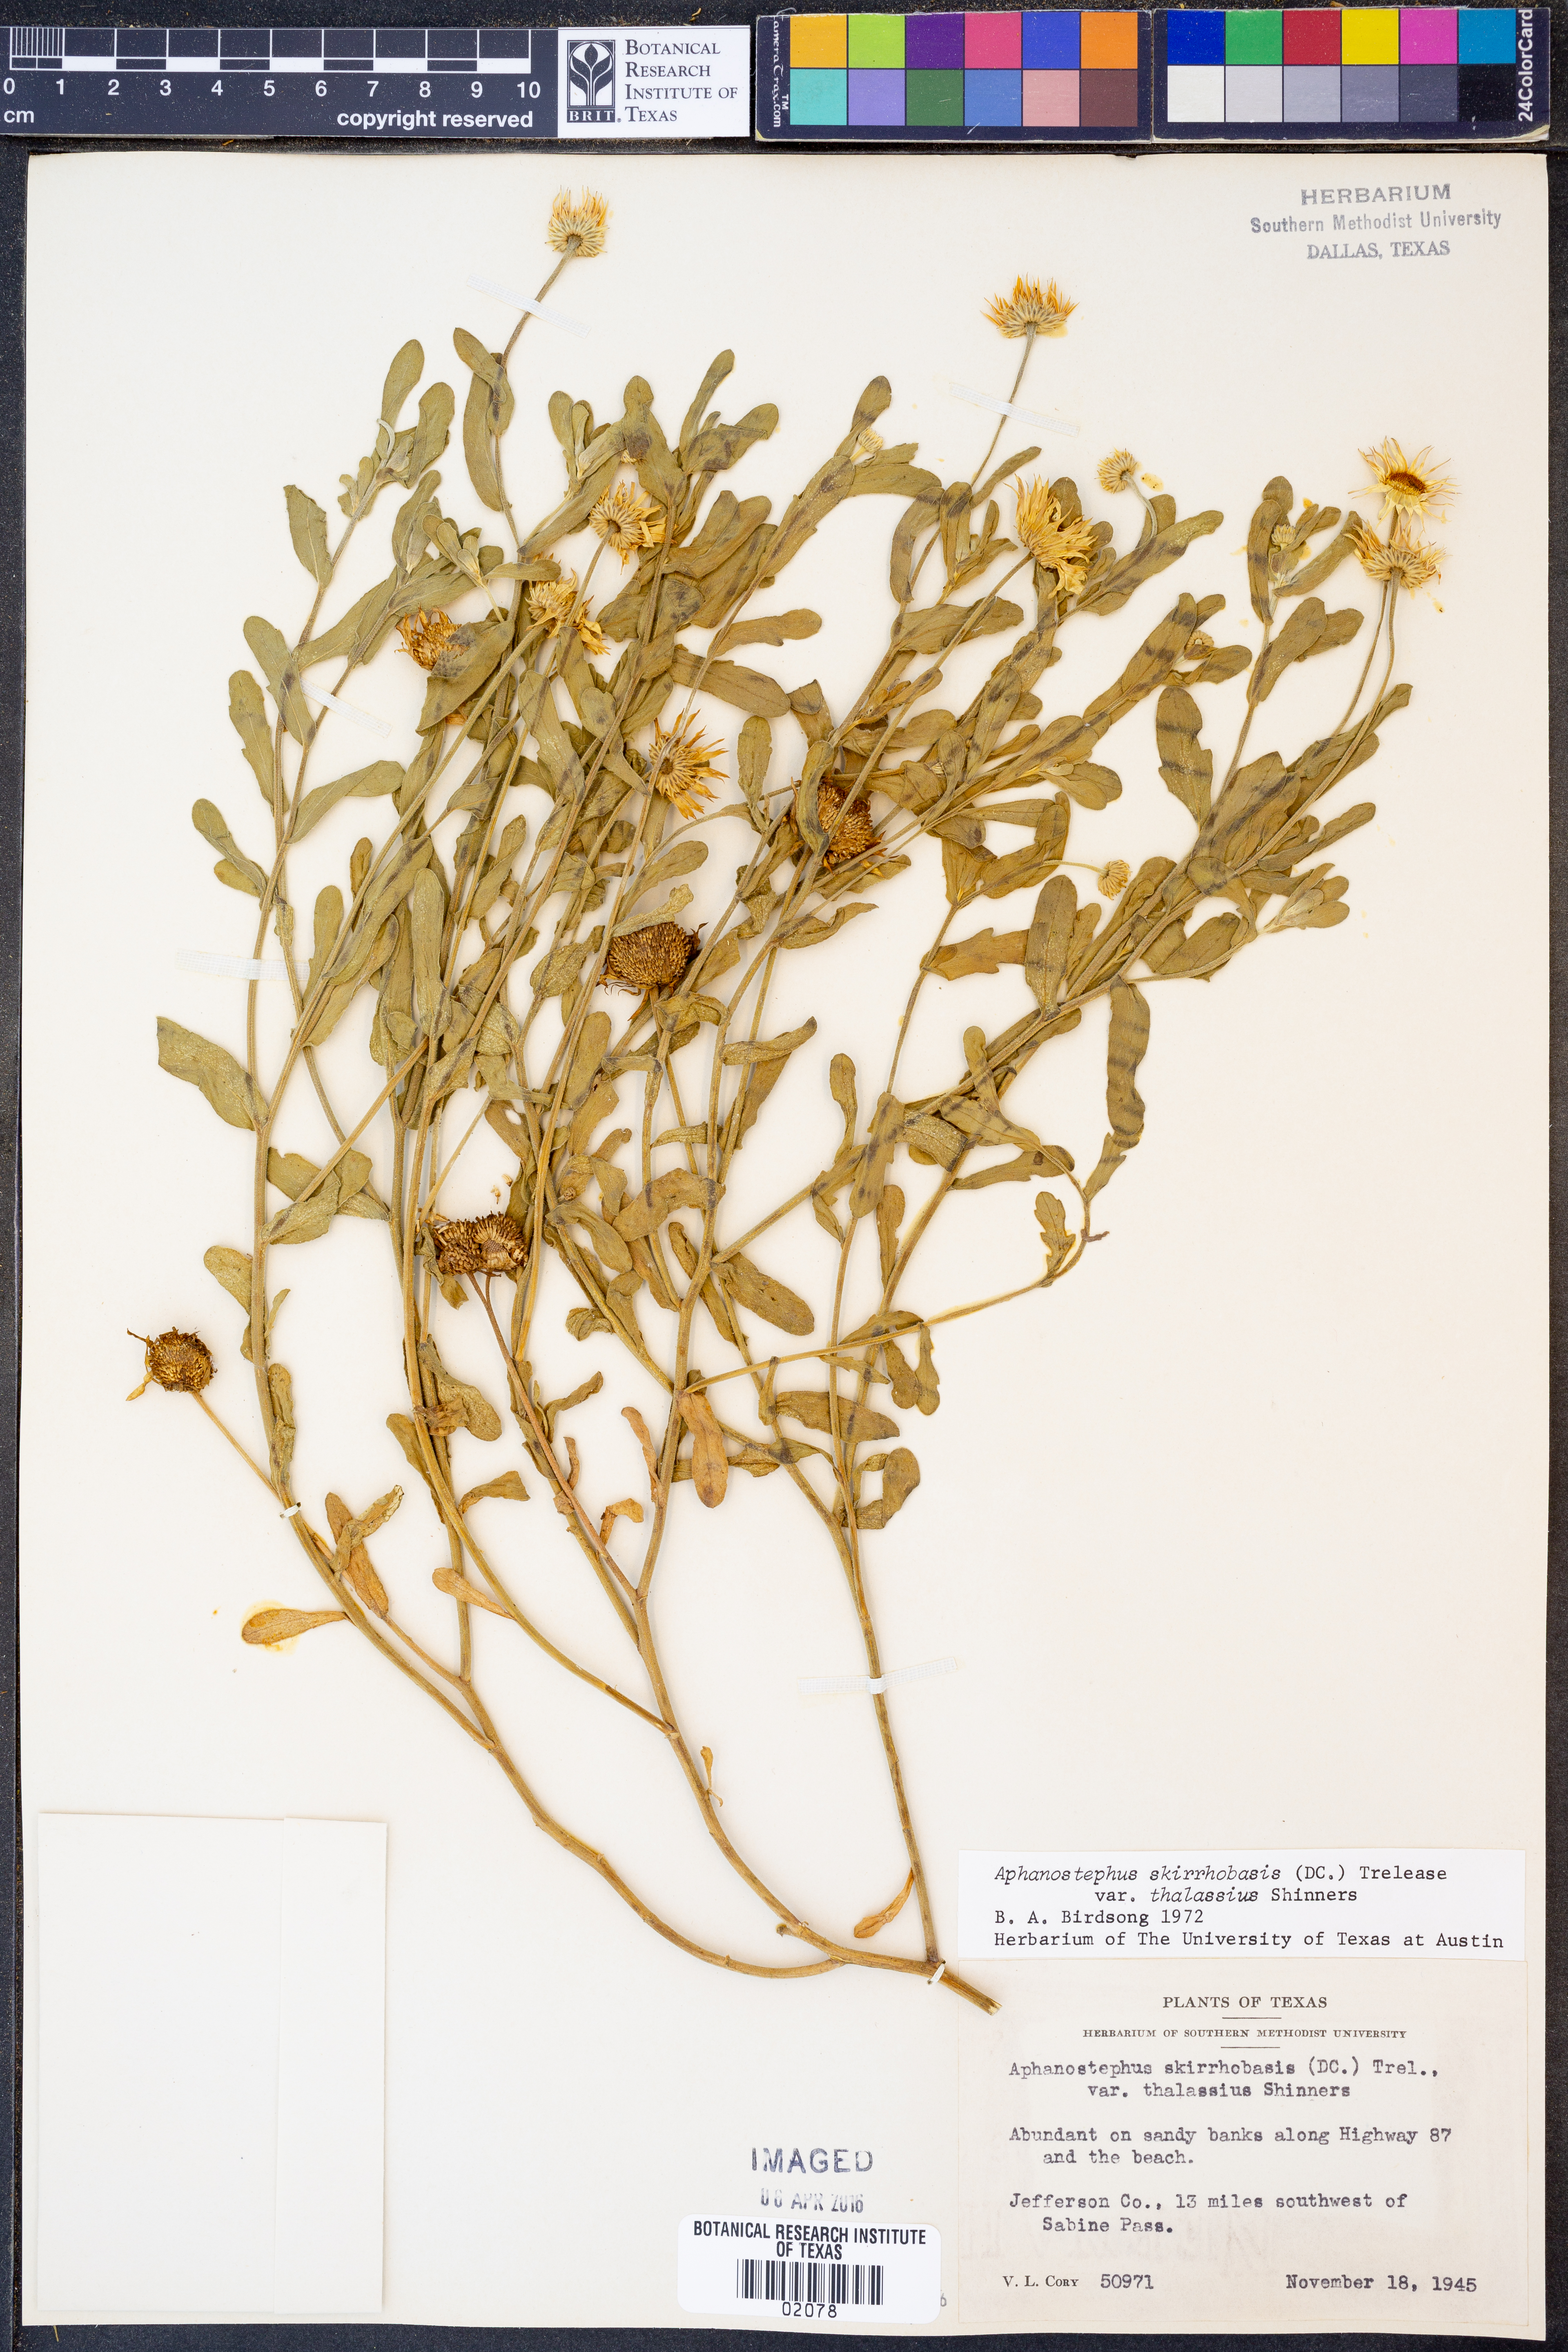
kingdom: Plantae
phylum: Tracheophyta
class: Magnoliopsida
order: Asterales
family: Asteraceae
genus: Aphanostephus
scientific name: Aphanostephus skirrhobasis
